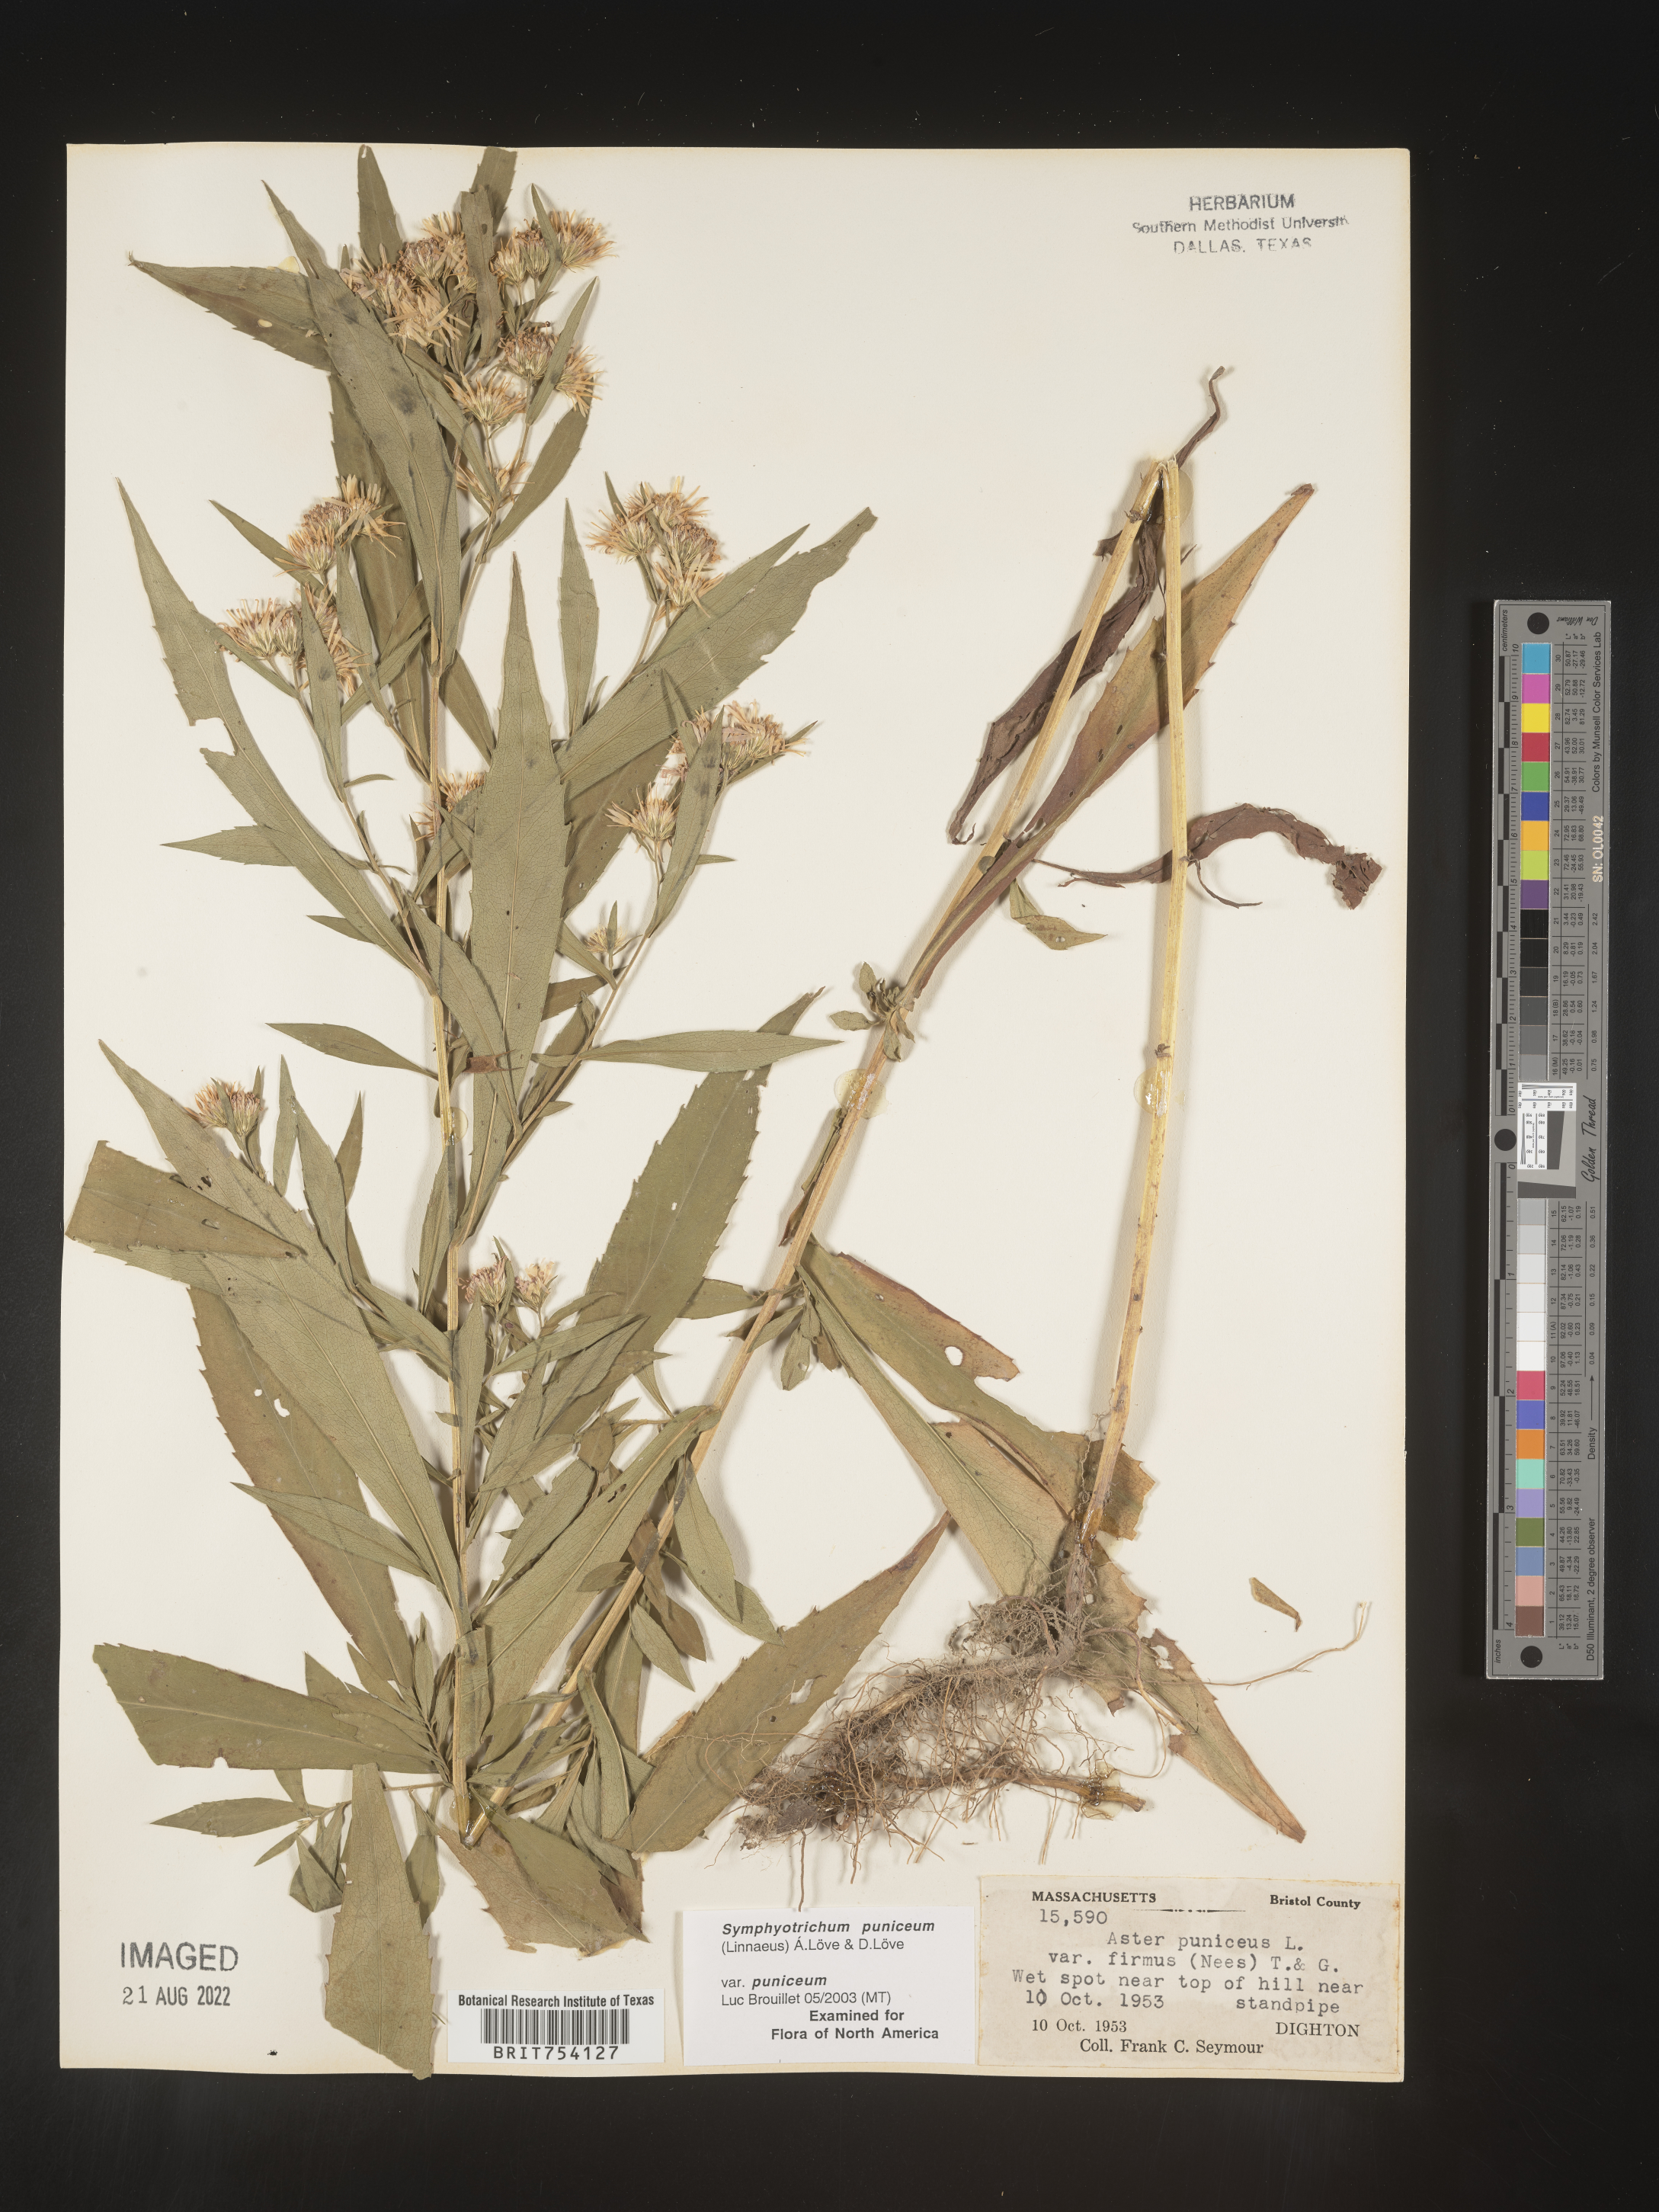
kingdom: Plantae
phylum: Tracheophyta
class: Magnoliopsida
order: Asterales
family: Asteraceae
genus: Symphyotrichum
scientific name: Symphyotrichum puniceum
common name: Bog aster
